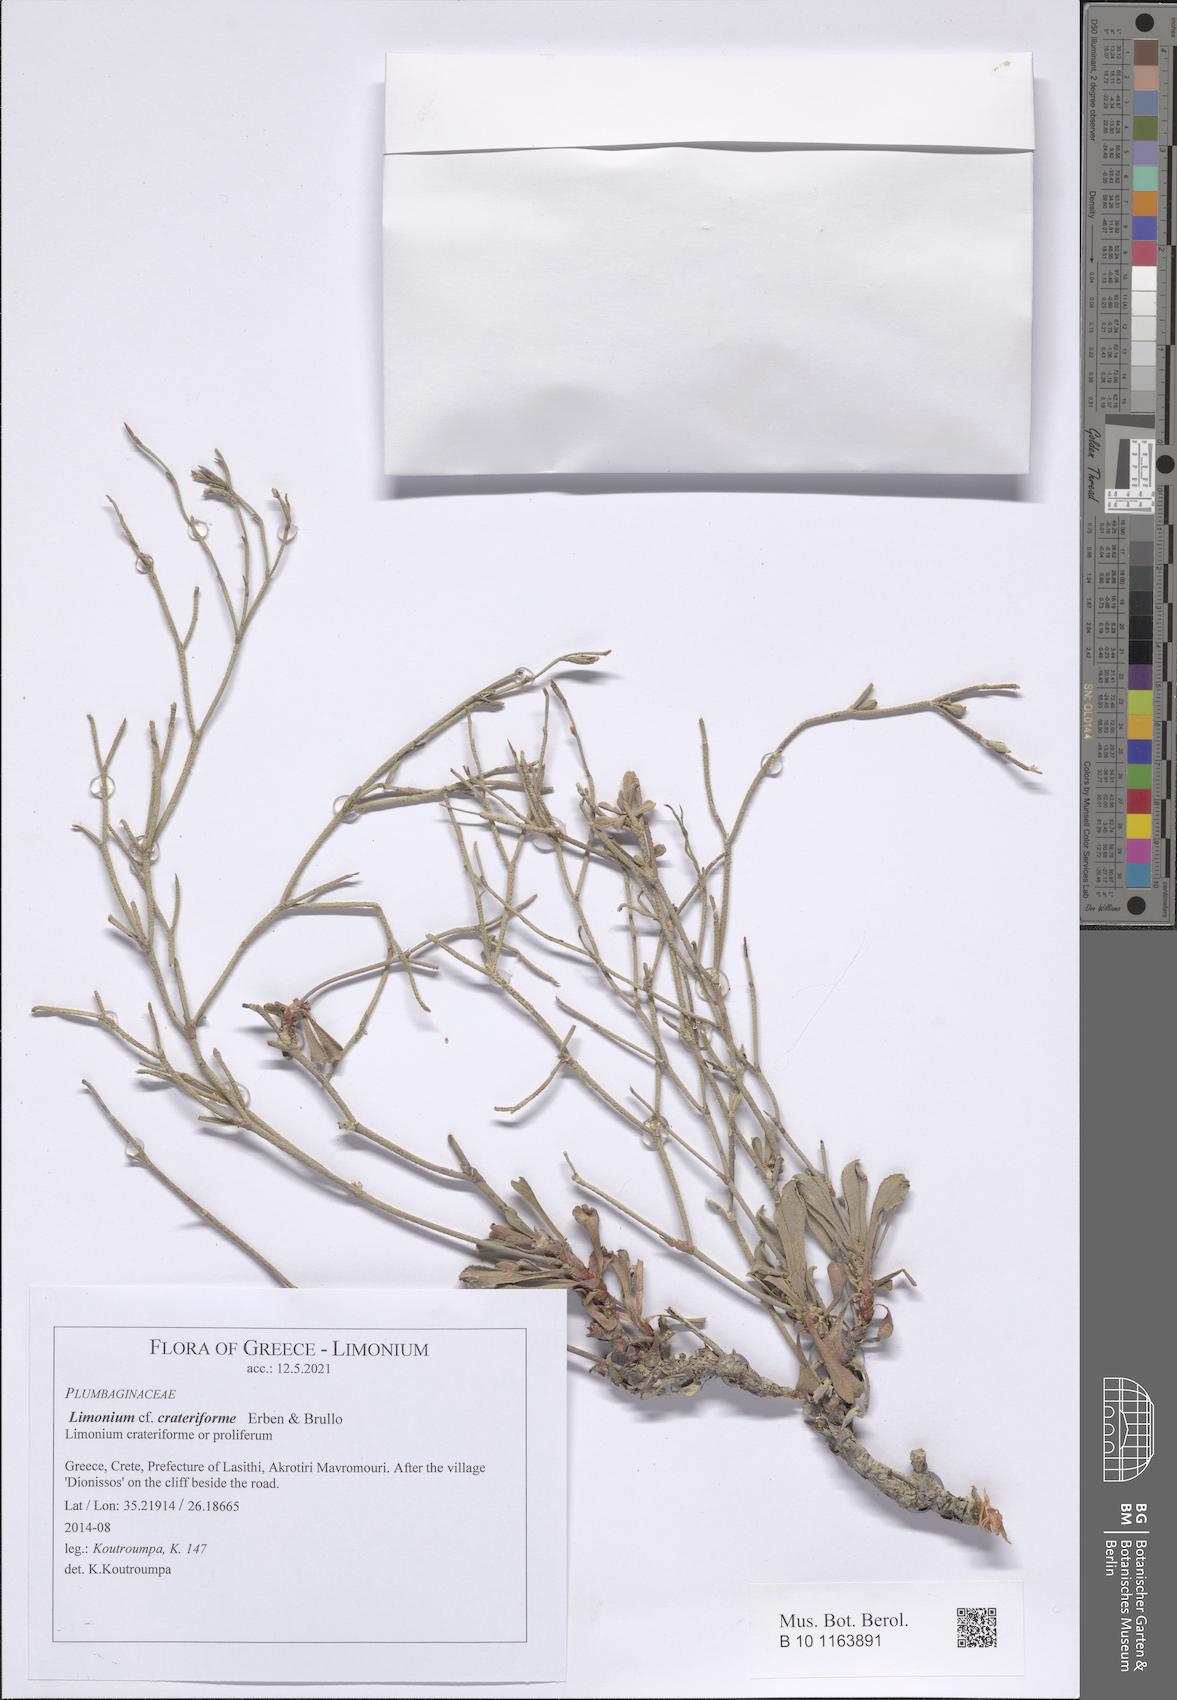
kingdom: Plantae
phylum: Tracheophyta
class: Magnoliopsida
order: Caryophyllales
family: Plumbaginaceae
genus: Limonium
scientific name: Limonium crateriforme
